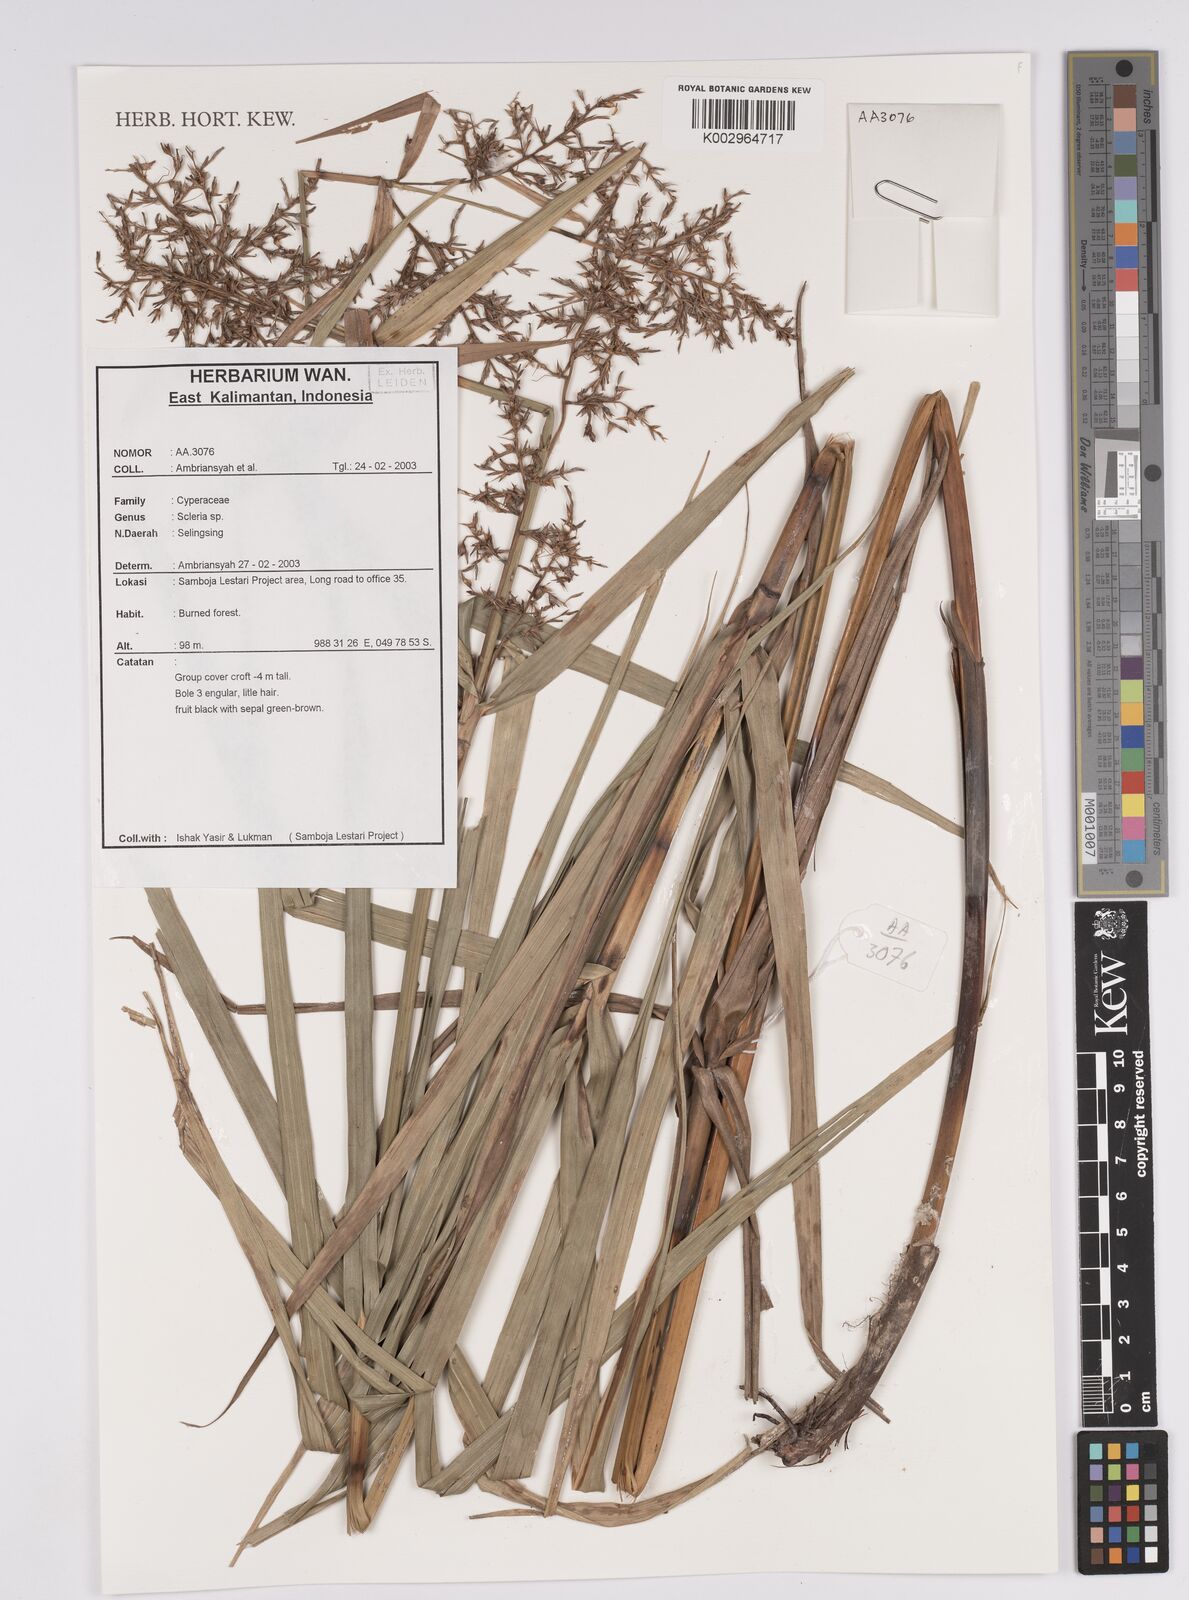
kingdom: Plantae
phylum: Tracheophyta
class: Liliopsida
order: Poales
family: Cyperaceae
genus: Scleria
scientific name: Scleria
